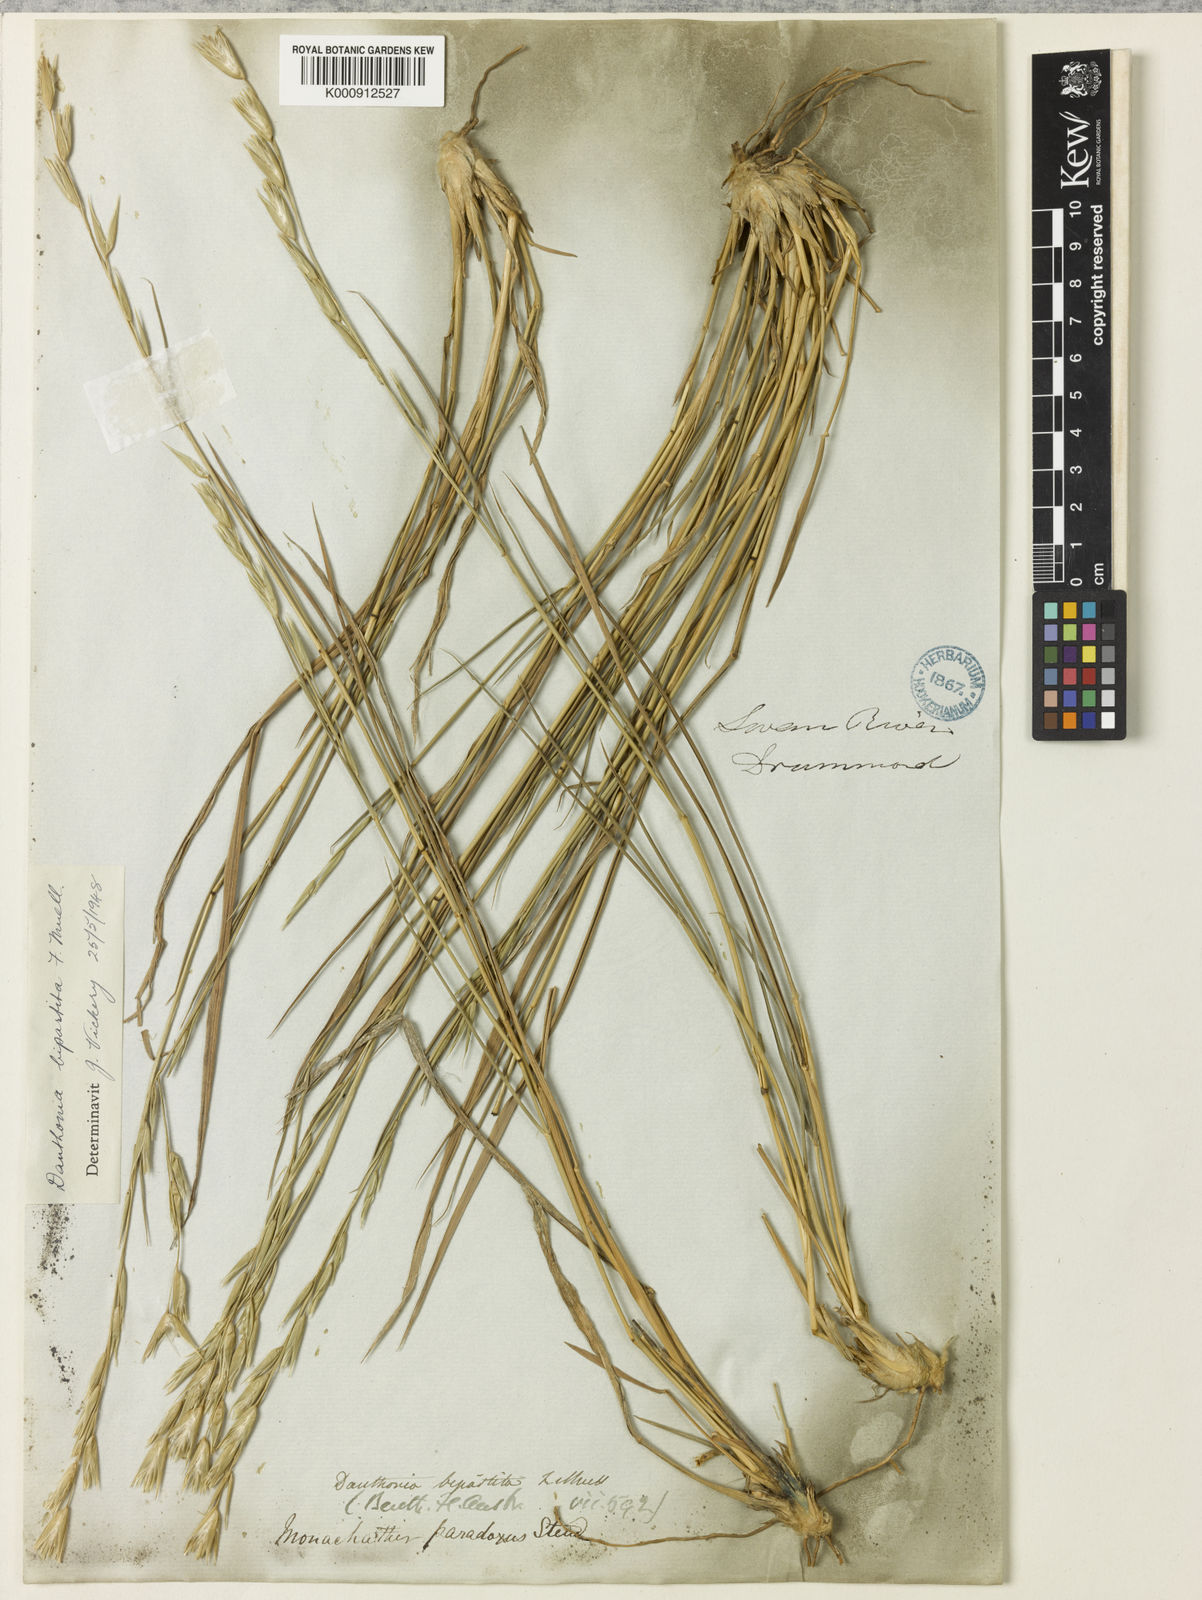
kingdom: Plantae
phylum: Tracheophyta
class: Liliopsida
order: Poales
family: Poaceae
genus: Monachather
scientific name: Monachather paradoxus
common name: Bandicoot grass
